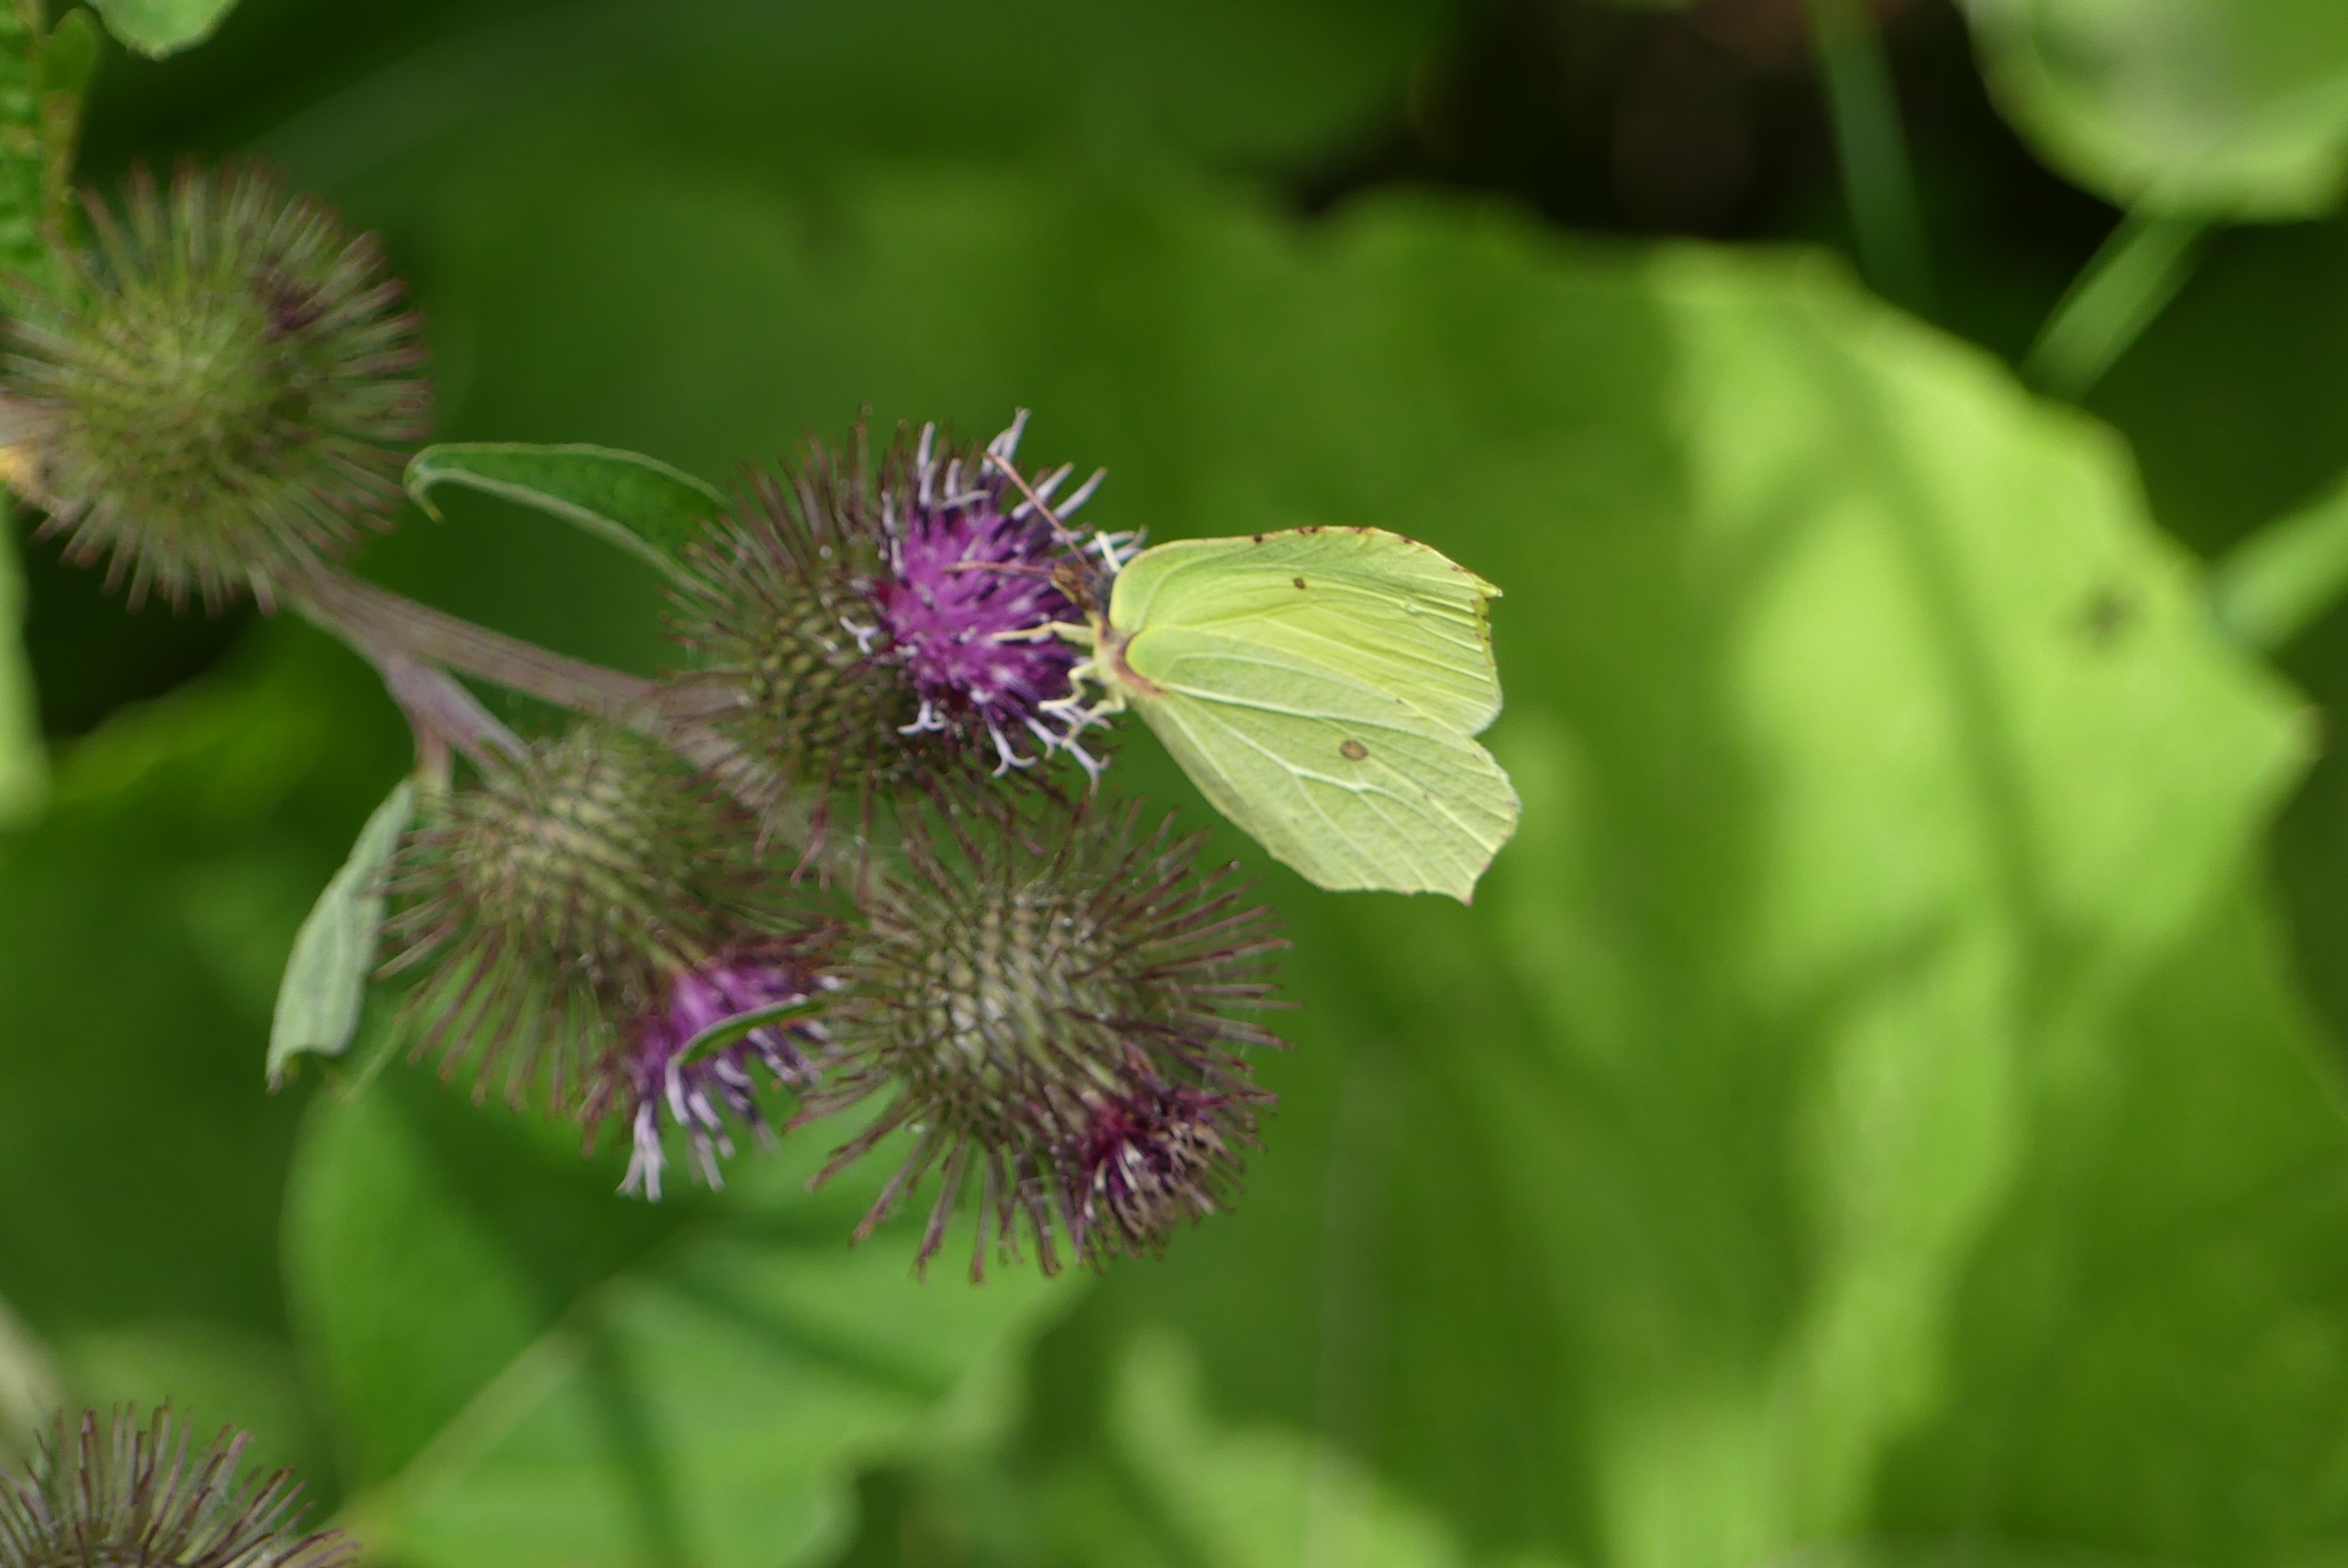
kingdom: Animalia
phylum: Arthropoda
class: Insecta
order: Lepidoptera
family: Pieridae
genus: Gonepteryx
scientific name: Gonepteryx rhamni
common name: Citronsommerfugl
